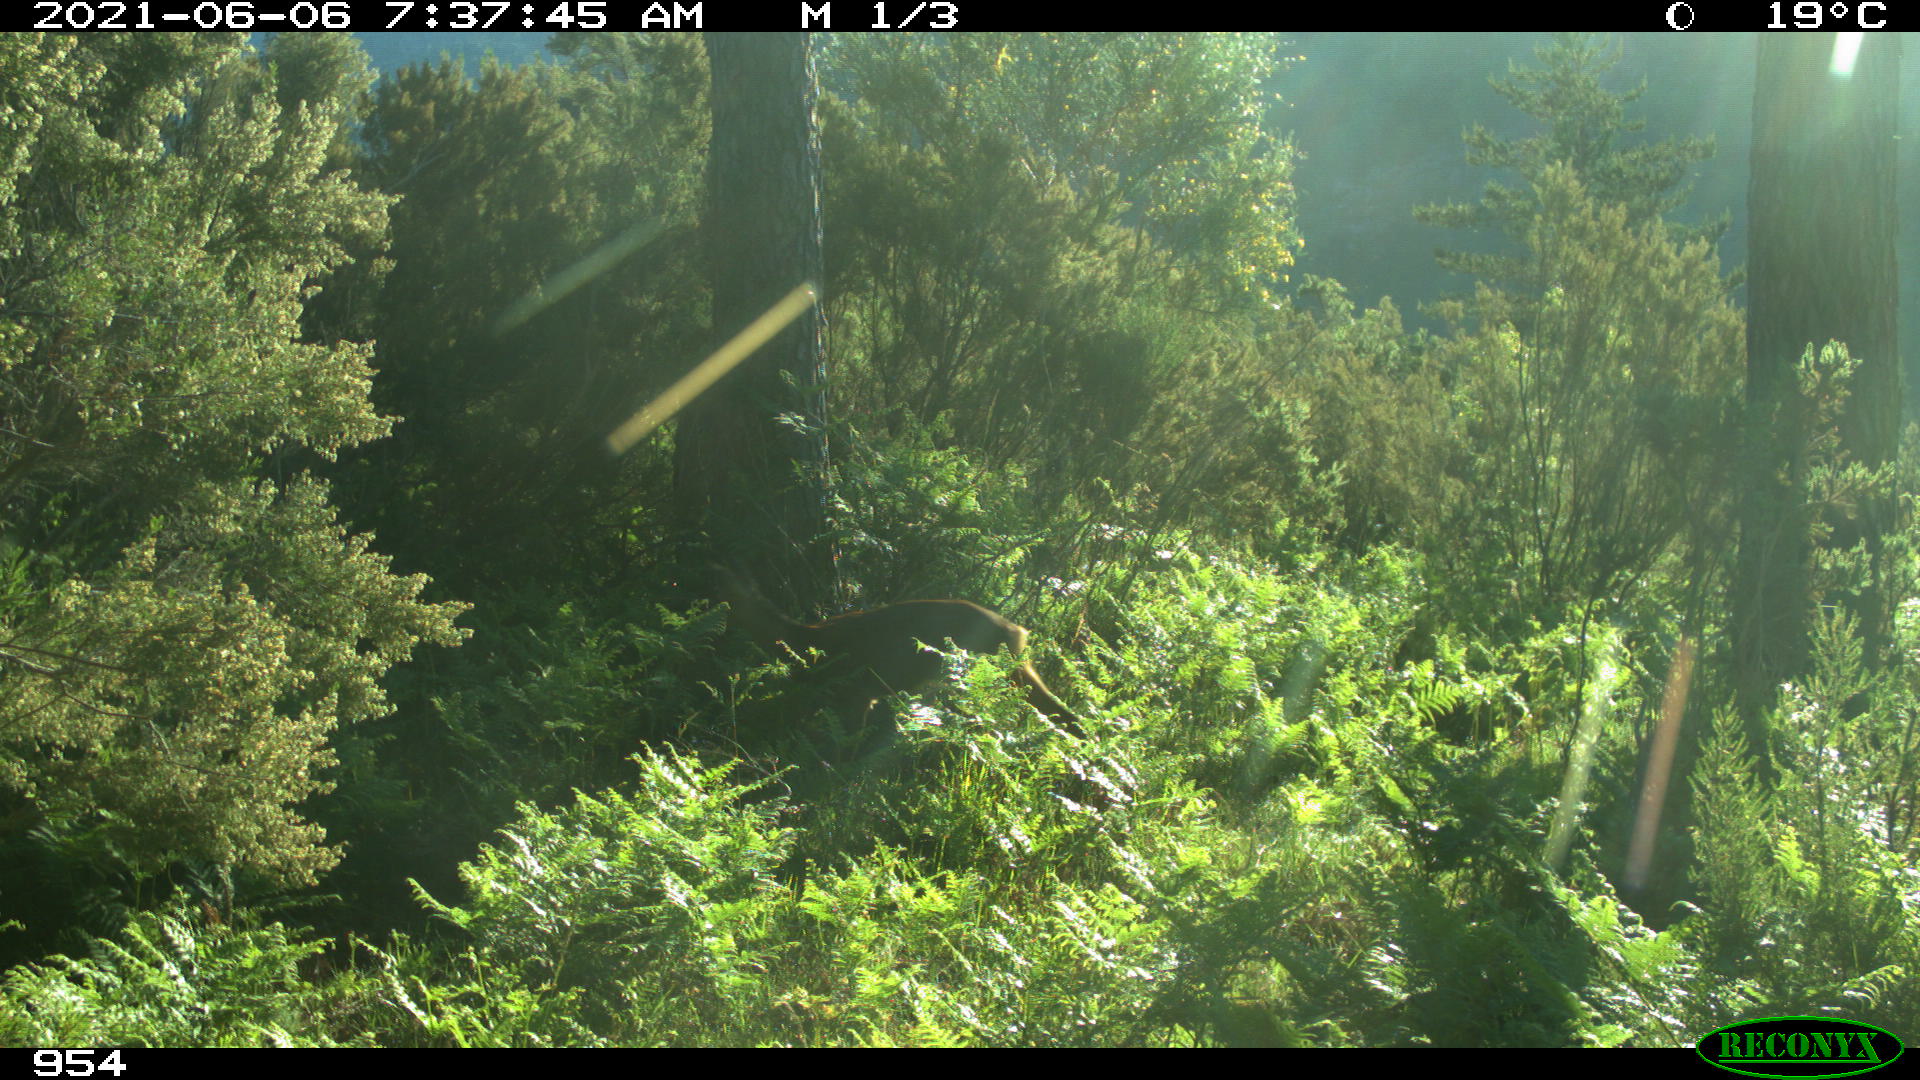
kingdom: Animalia
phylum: Chordata
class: Mammalia
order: Artiodactyla
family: Cervidae
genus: Capreolus
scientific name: Capreolus capreolus
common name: Western roe deer
